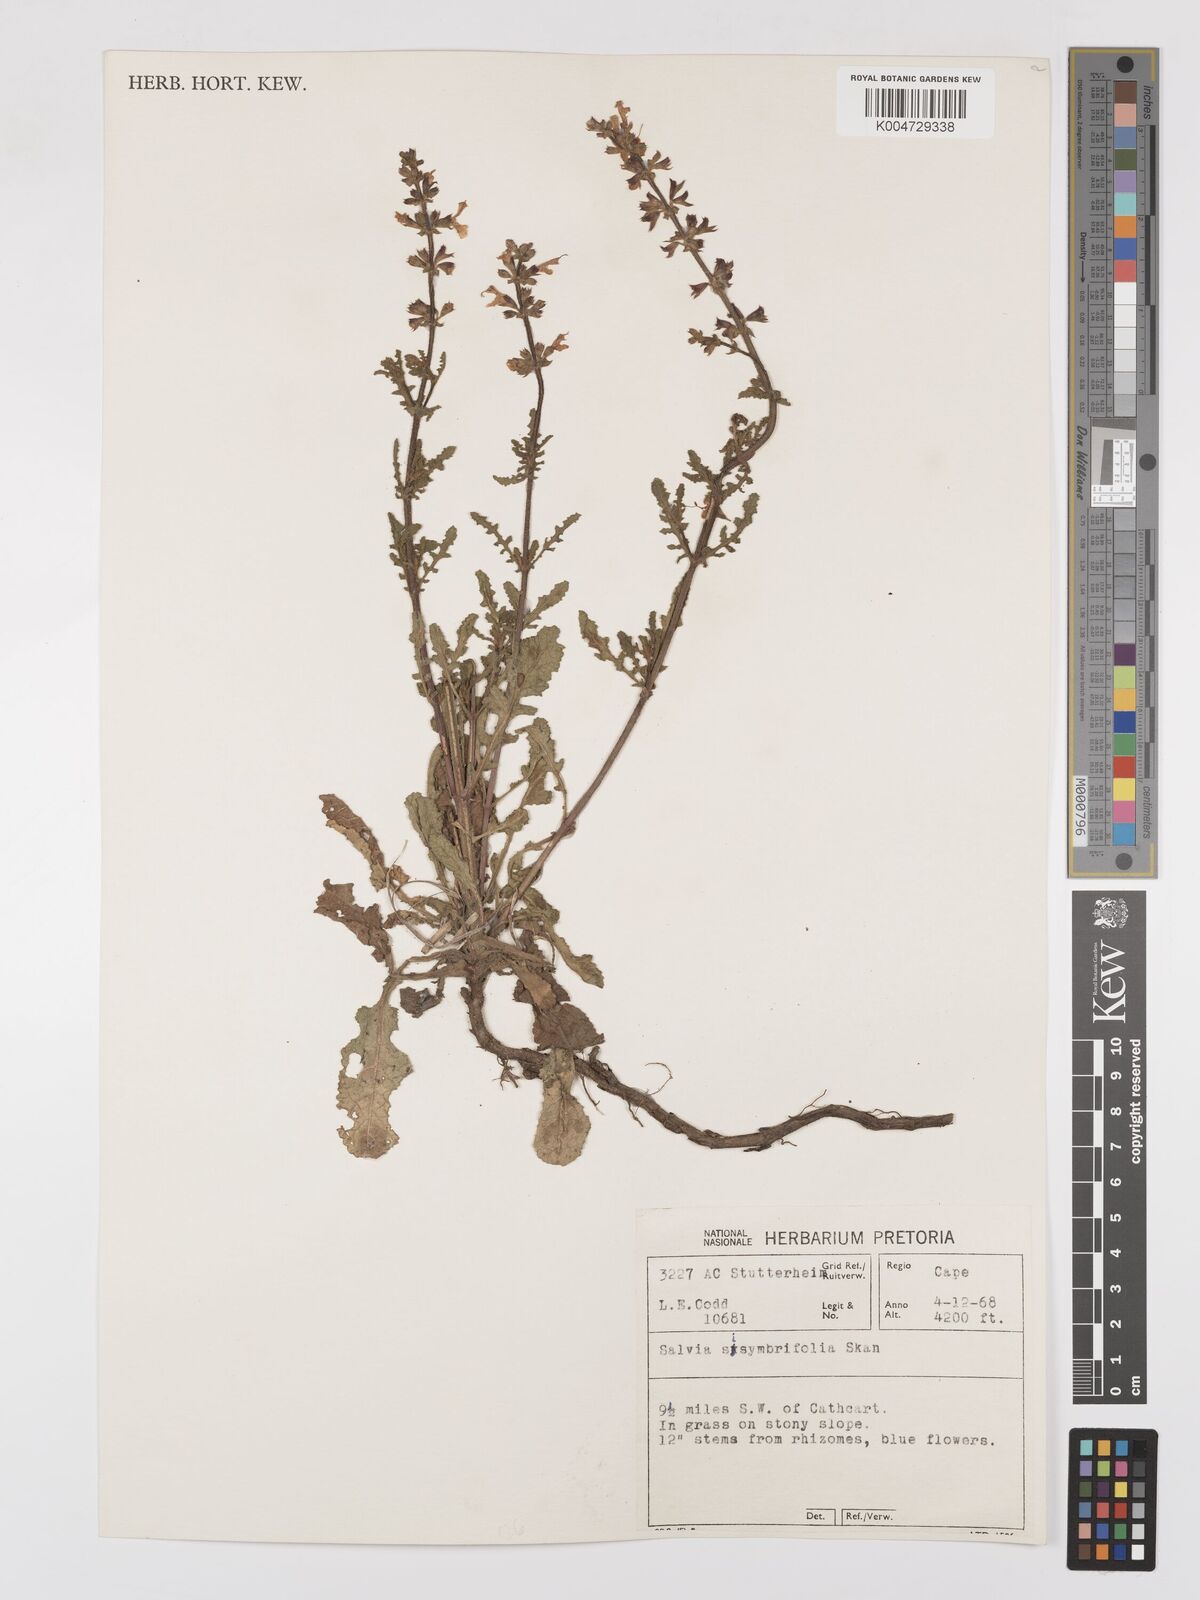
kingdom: Plantae
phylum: Tracheophyta
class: Magnoliopsida
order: Lamiales
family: Lamiaceae
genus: Salvia
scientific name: Salvia runcinata
